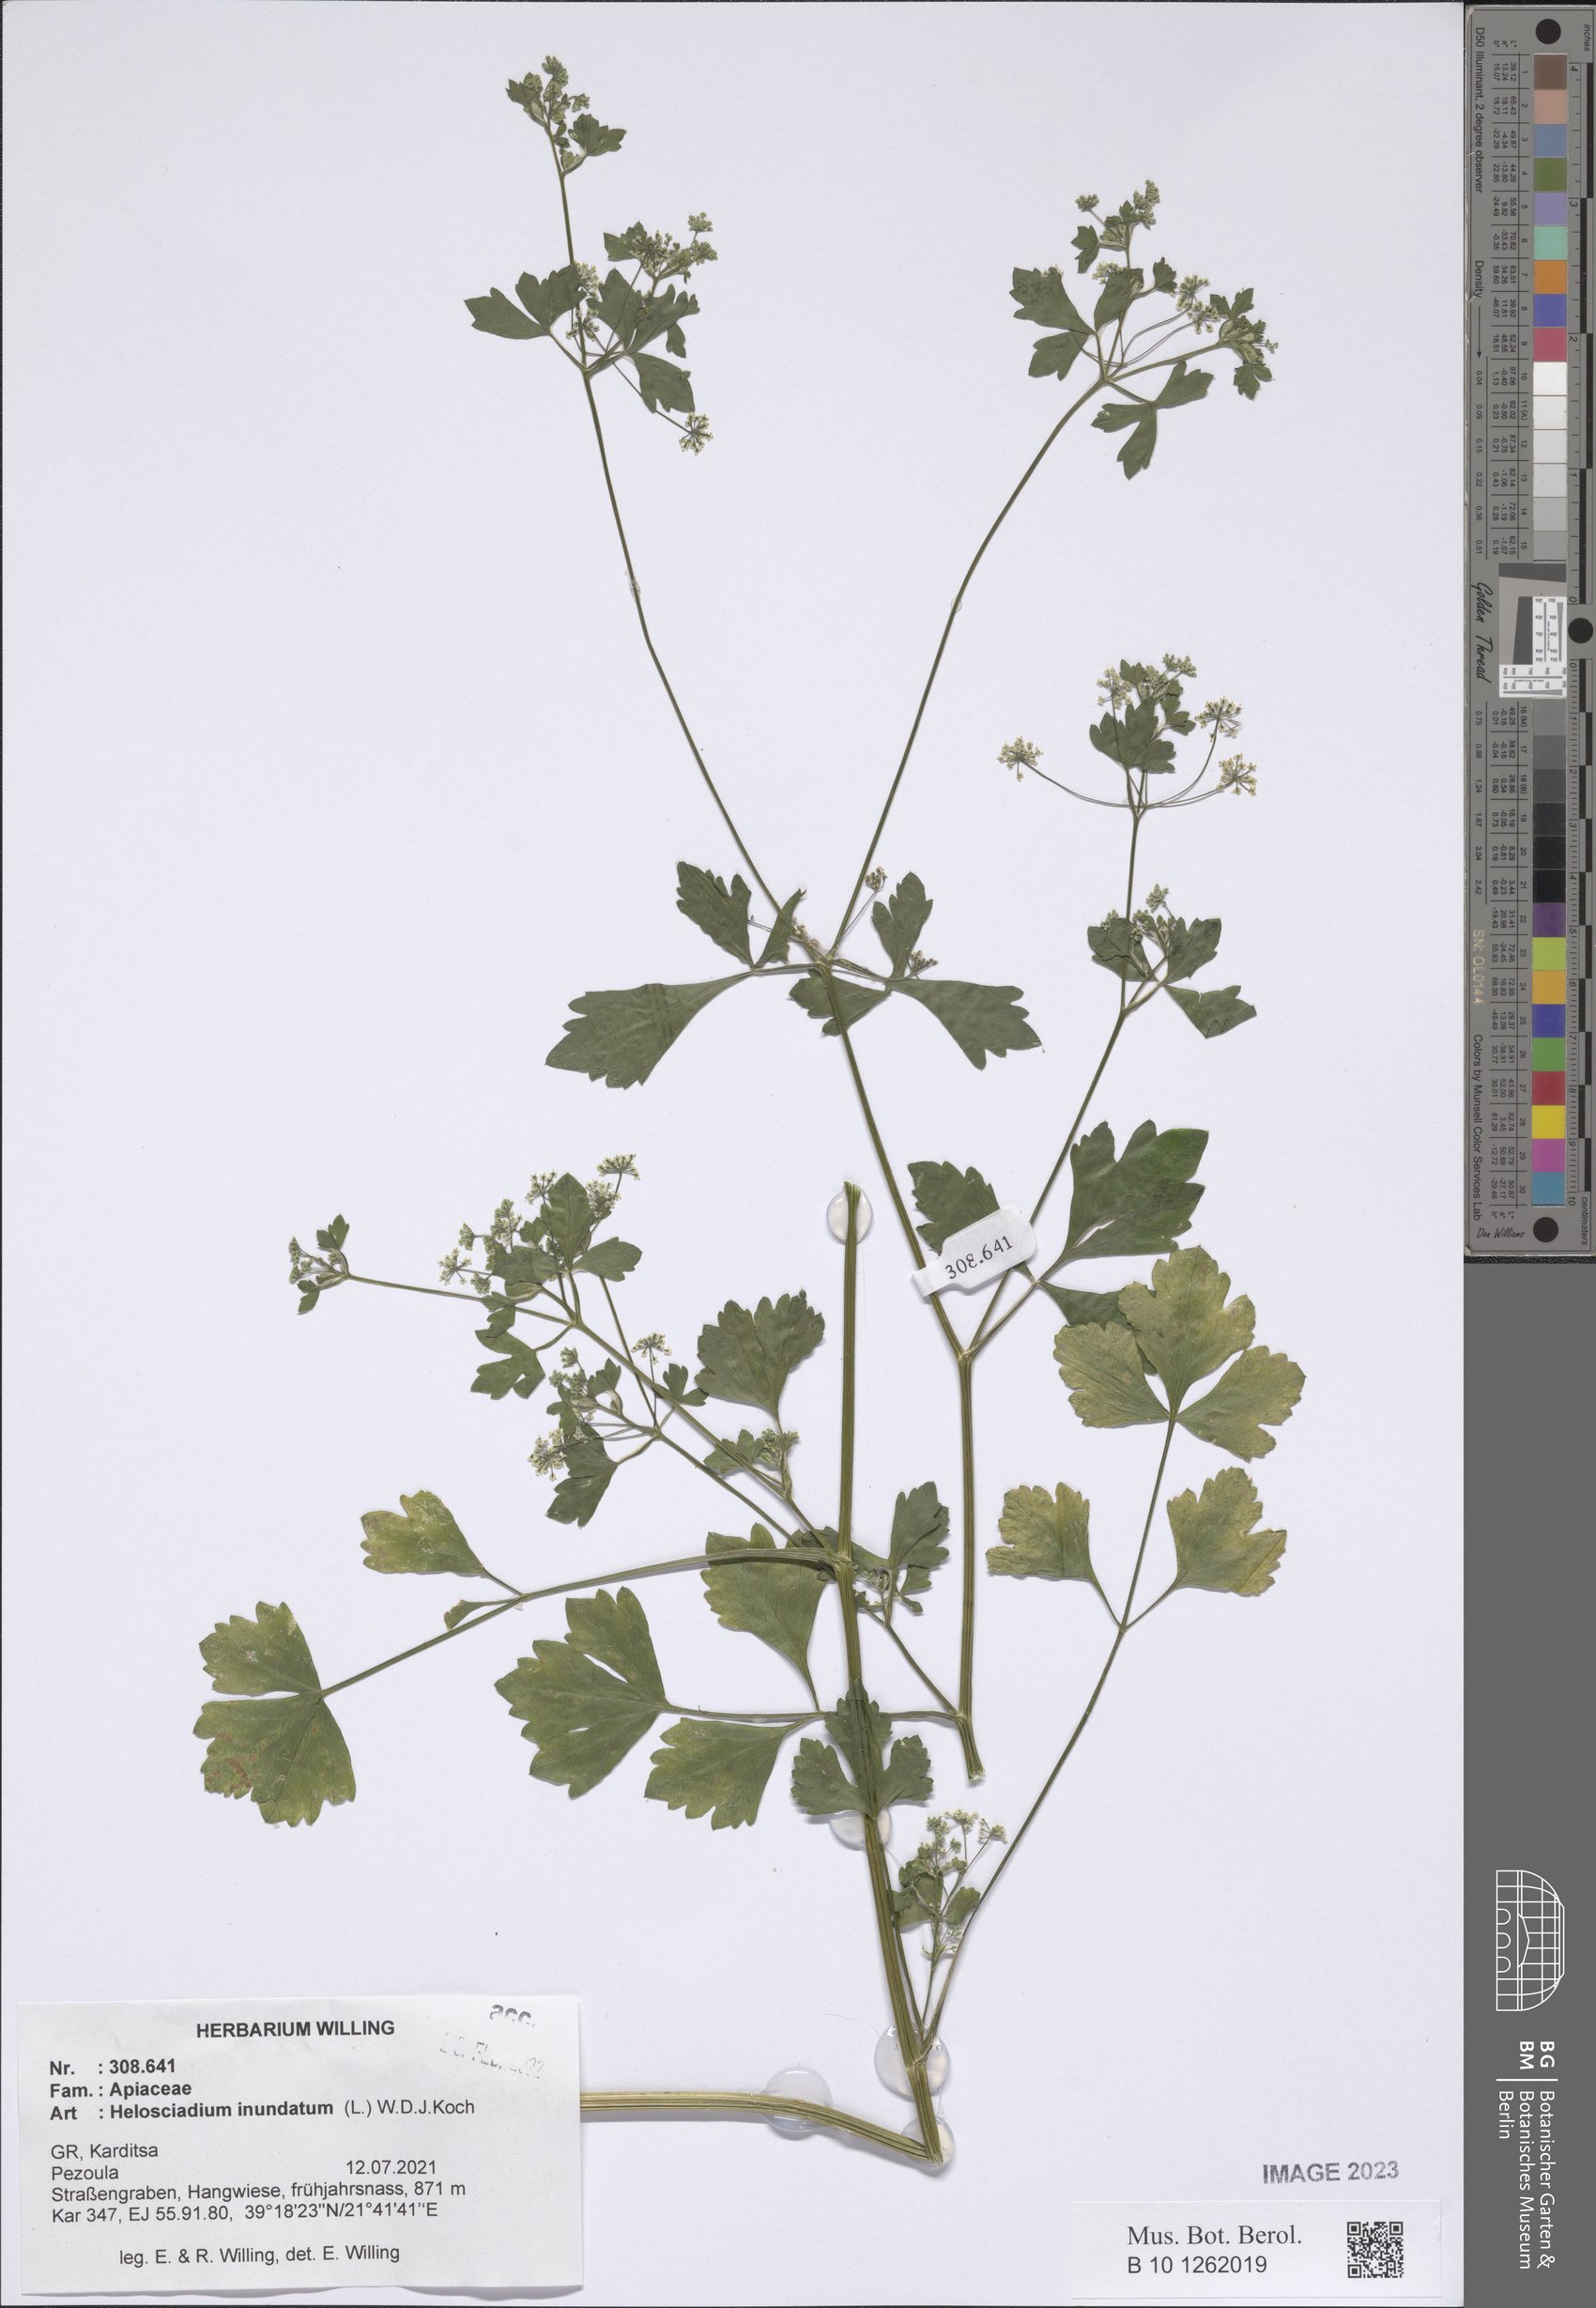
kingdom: Plantae
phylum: Tracheophyta
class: Magnoliopsida
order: Apiales
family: Apiaceae
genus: Helosciadium
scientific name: Helosciadium inundatum
